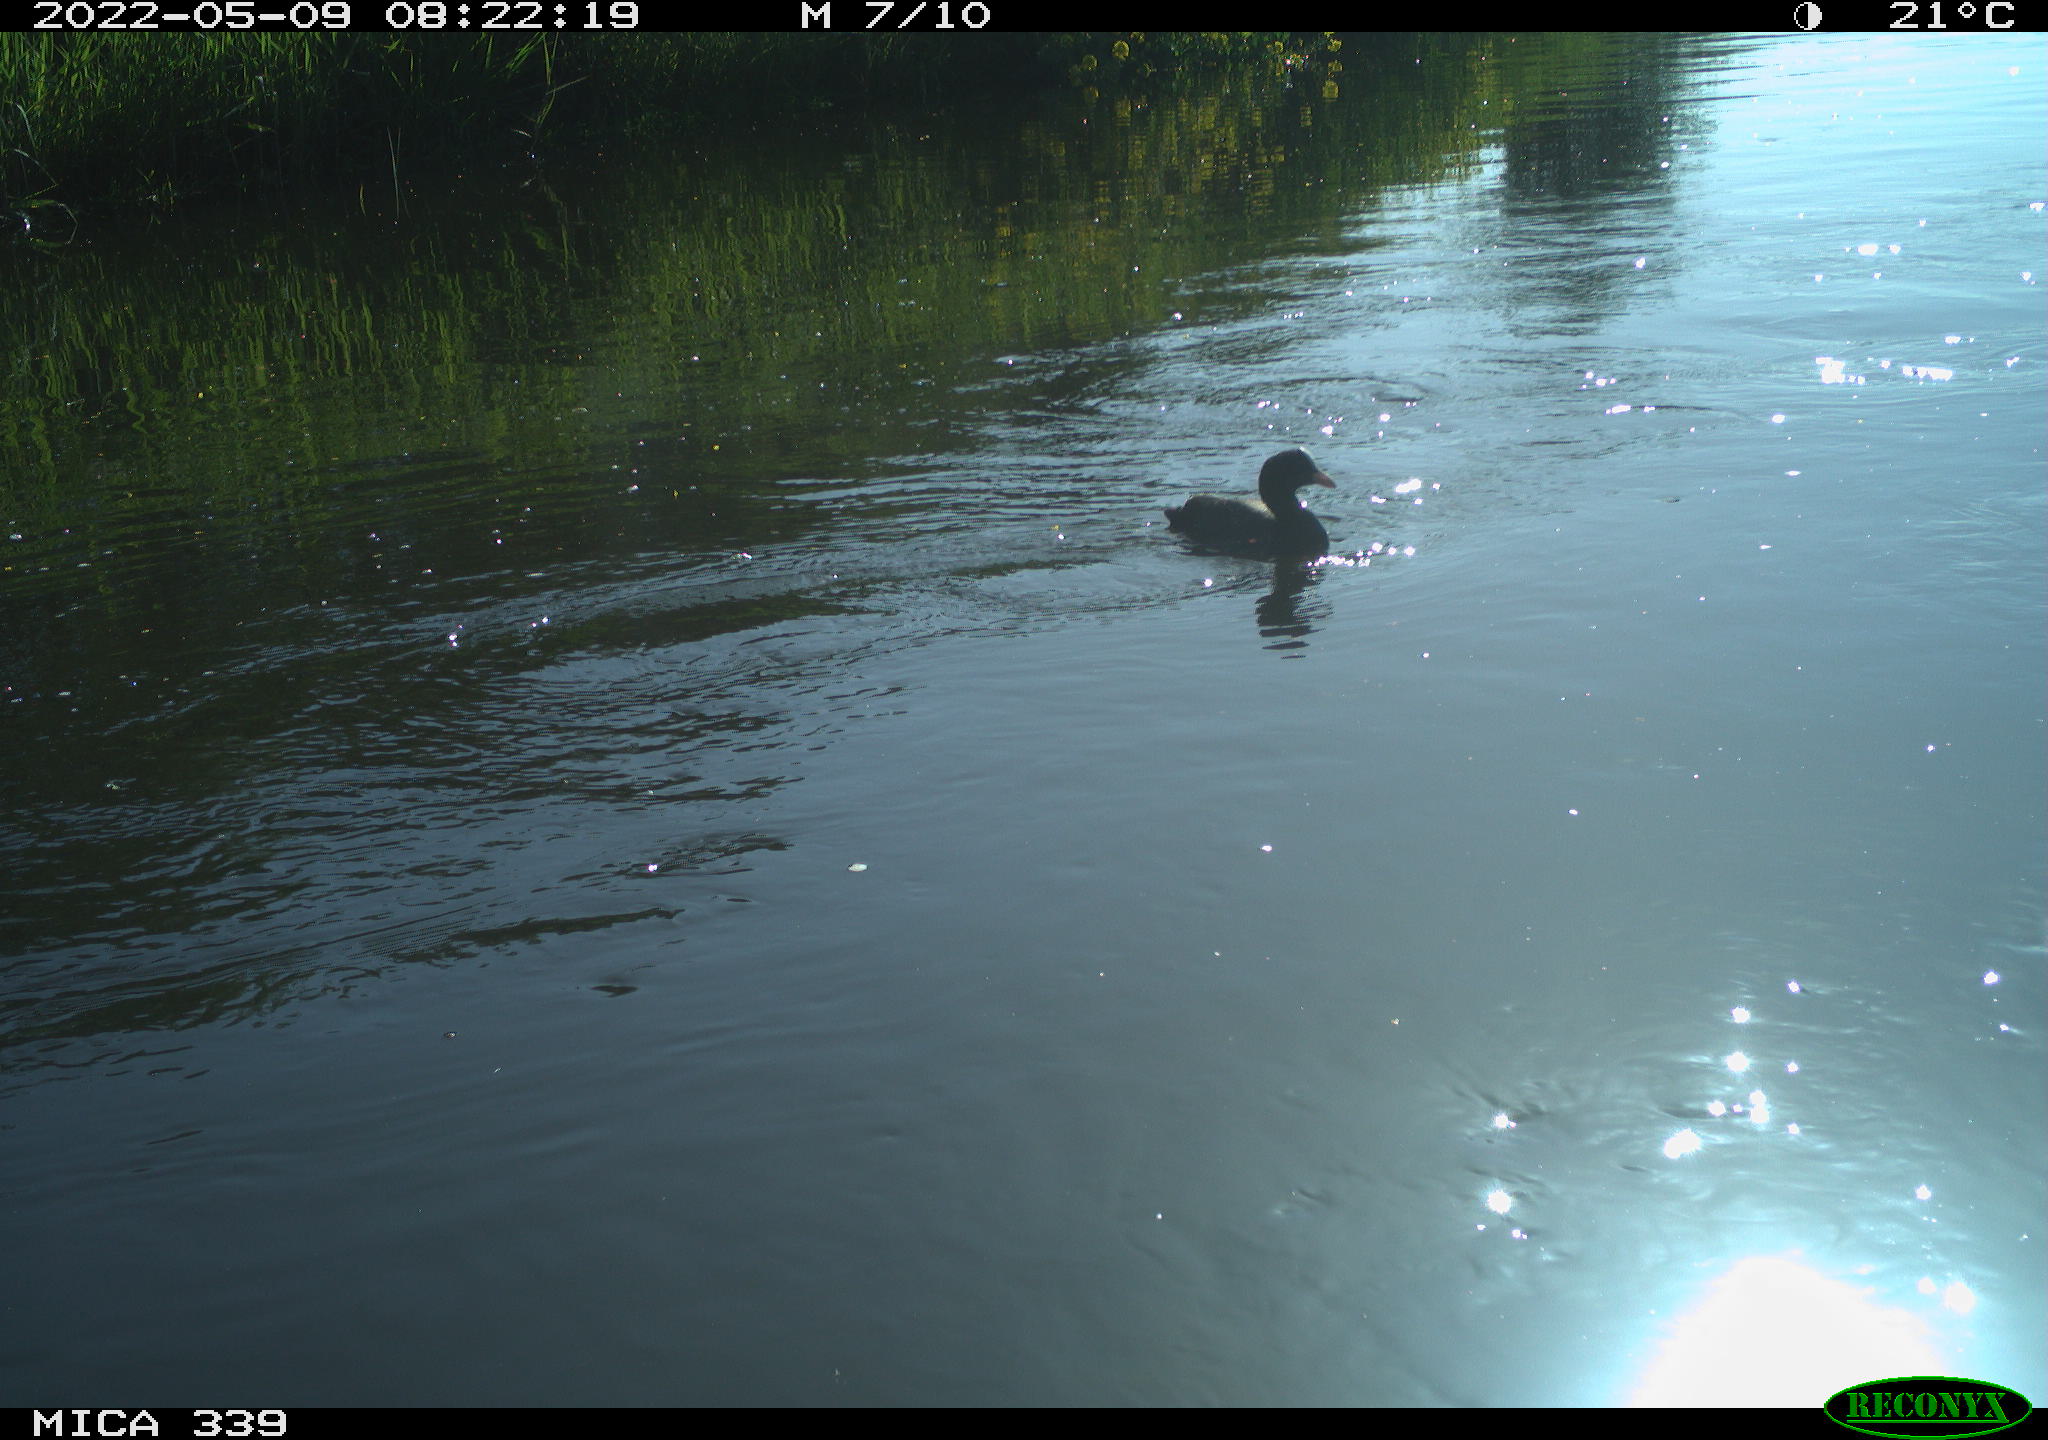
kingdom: Animalia
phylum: Chordata
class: Aves
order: Gruiformes
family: Rallidae
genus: Gallinula
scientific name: Gallinula chloropus
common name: Common moorhen
